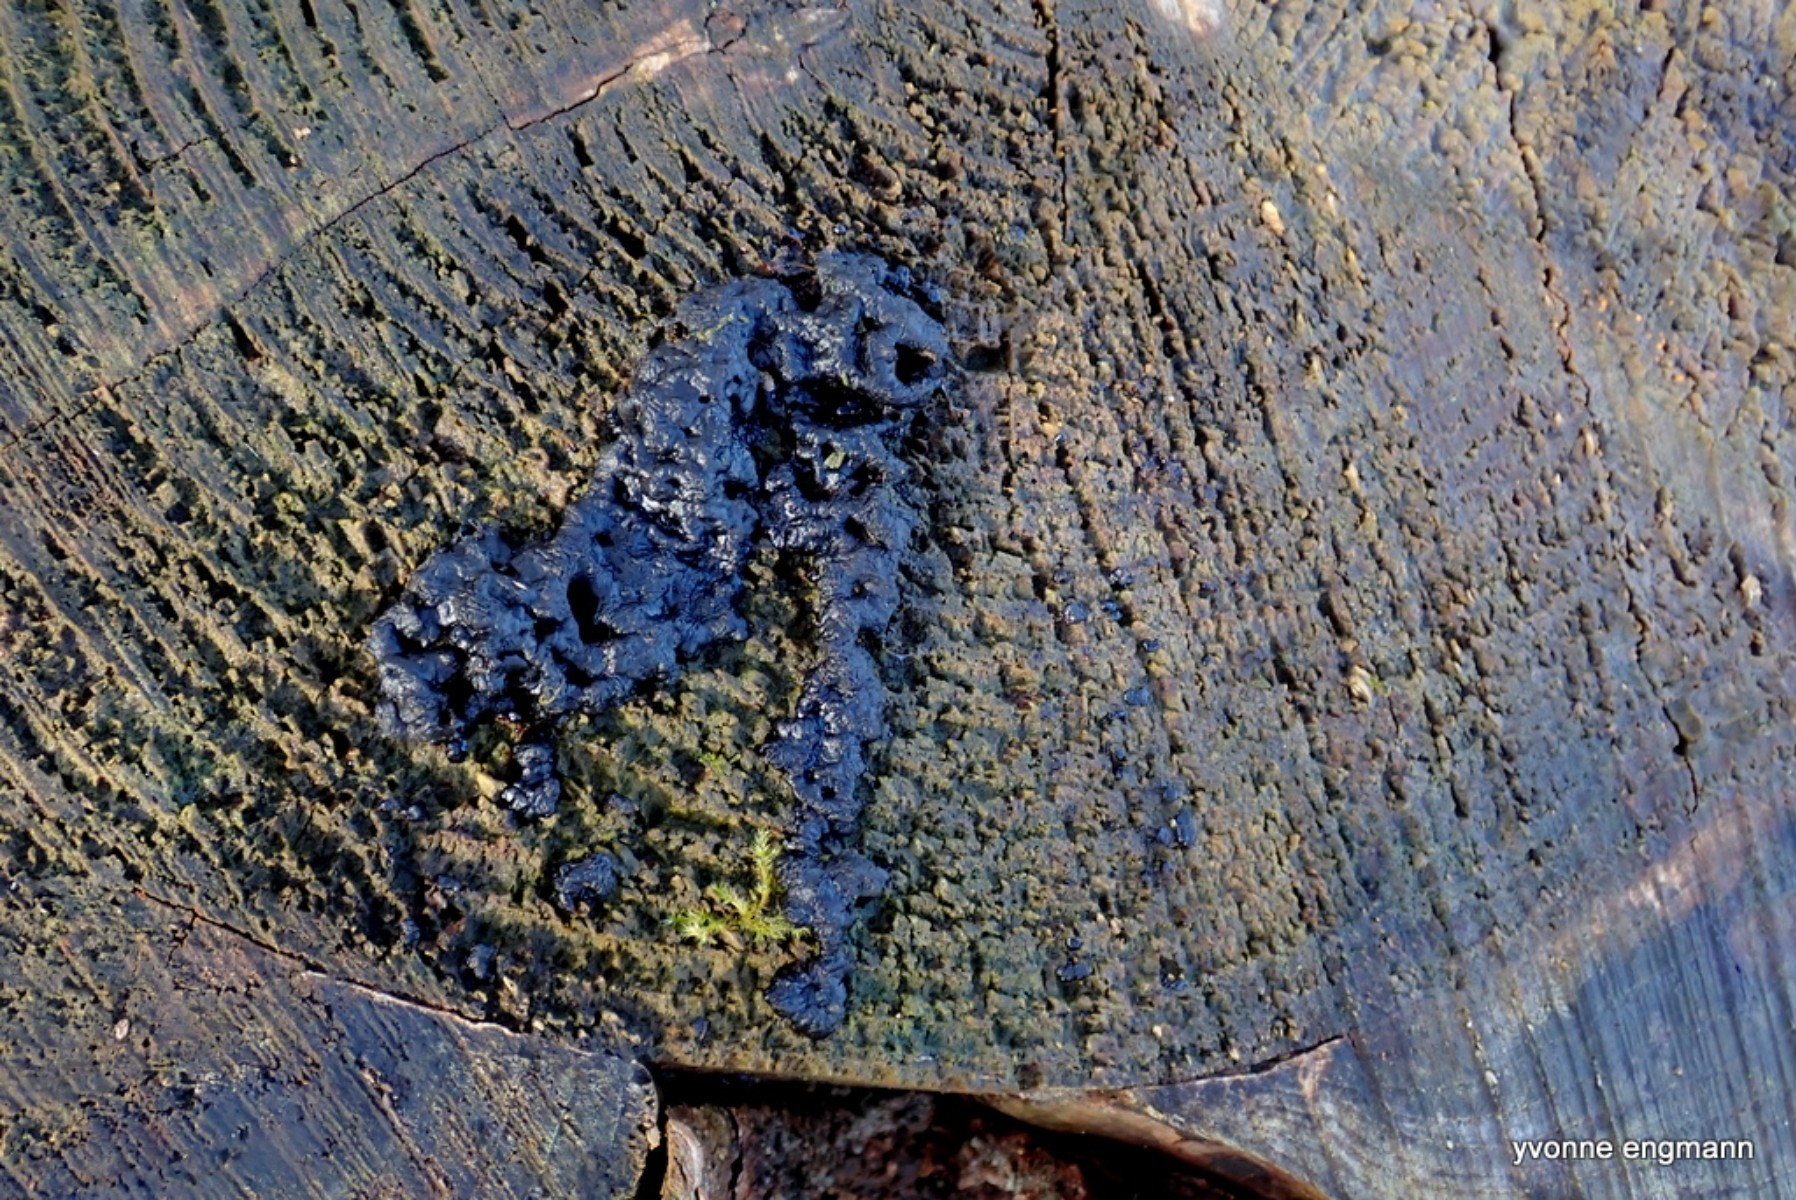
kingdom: Fungi
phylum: Basidiomycota
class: Agaricomycetes
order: Auriculariales
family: Auriculariaceae
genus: Exidia
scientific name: Exidia pithya
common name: gran-bævretop
